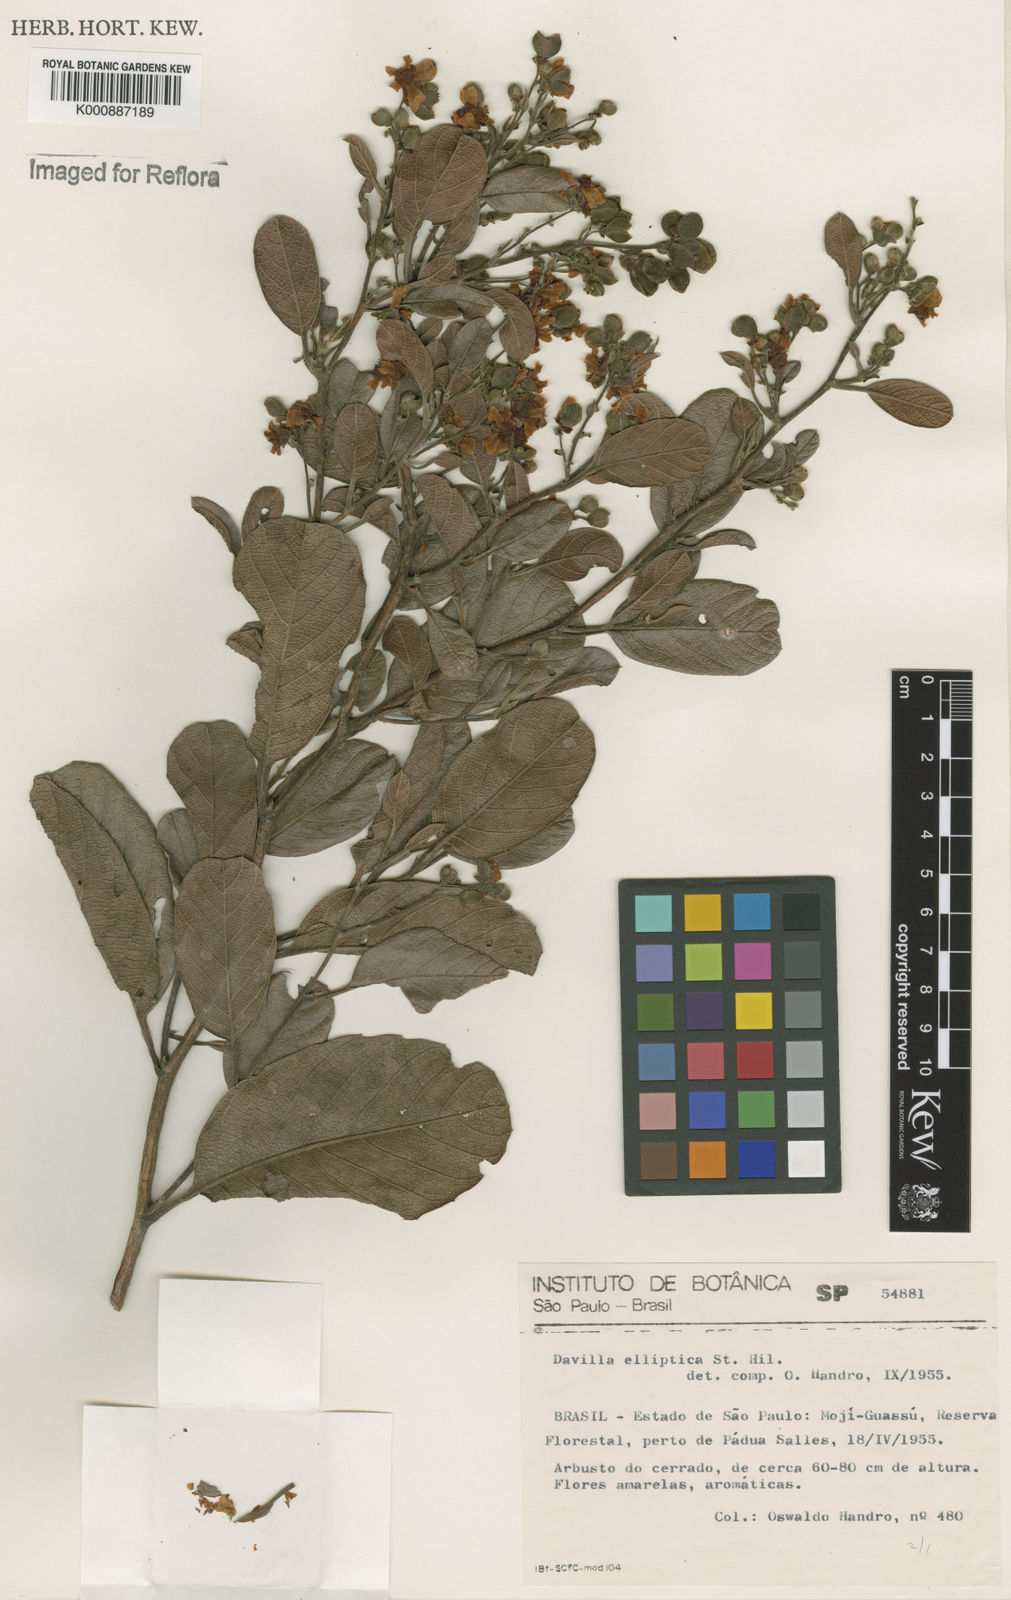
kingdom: Plantae
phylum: Tracheophyta
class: Magnoliopsida
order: Dilleniales
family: Dilleniaceae
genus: Davilla
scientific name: Davilla elliptica
